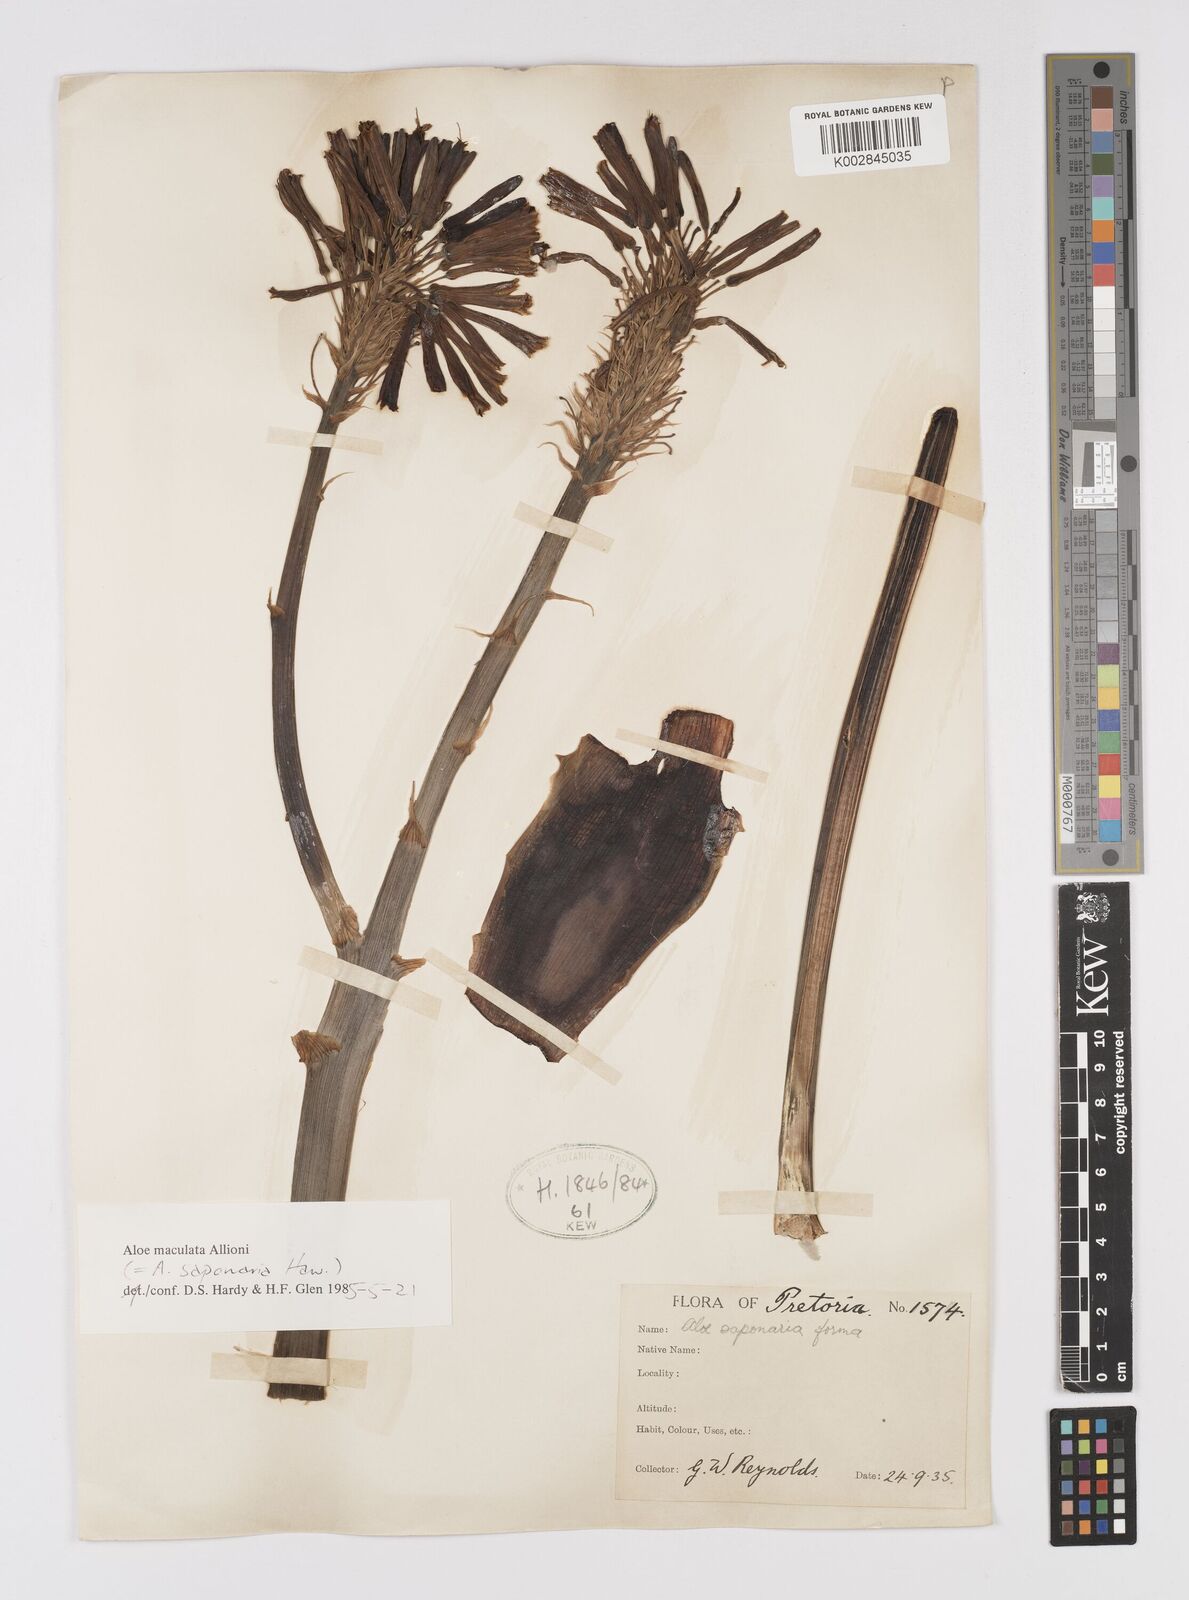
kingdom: Plantae
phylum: Tracheophyta
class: Liliopsida
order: Asparagales
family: Asphodelaceae
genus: Aloe
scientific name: Aloe microstigma
